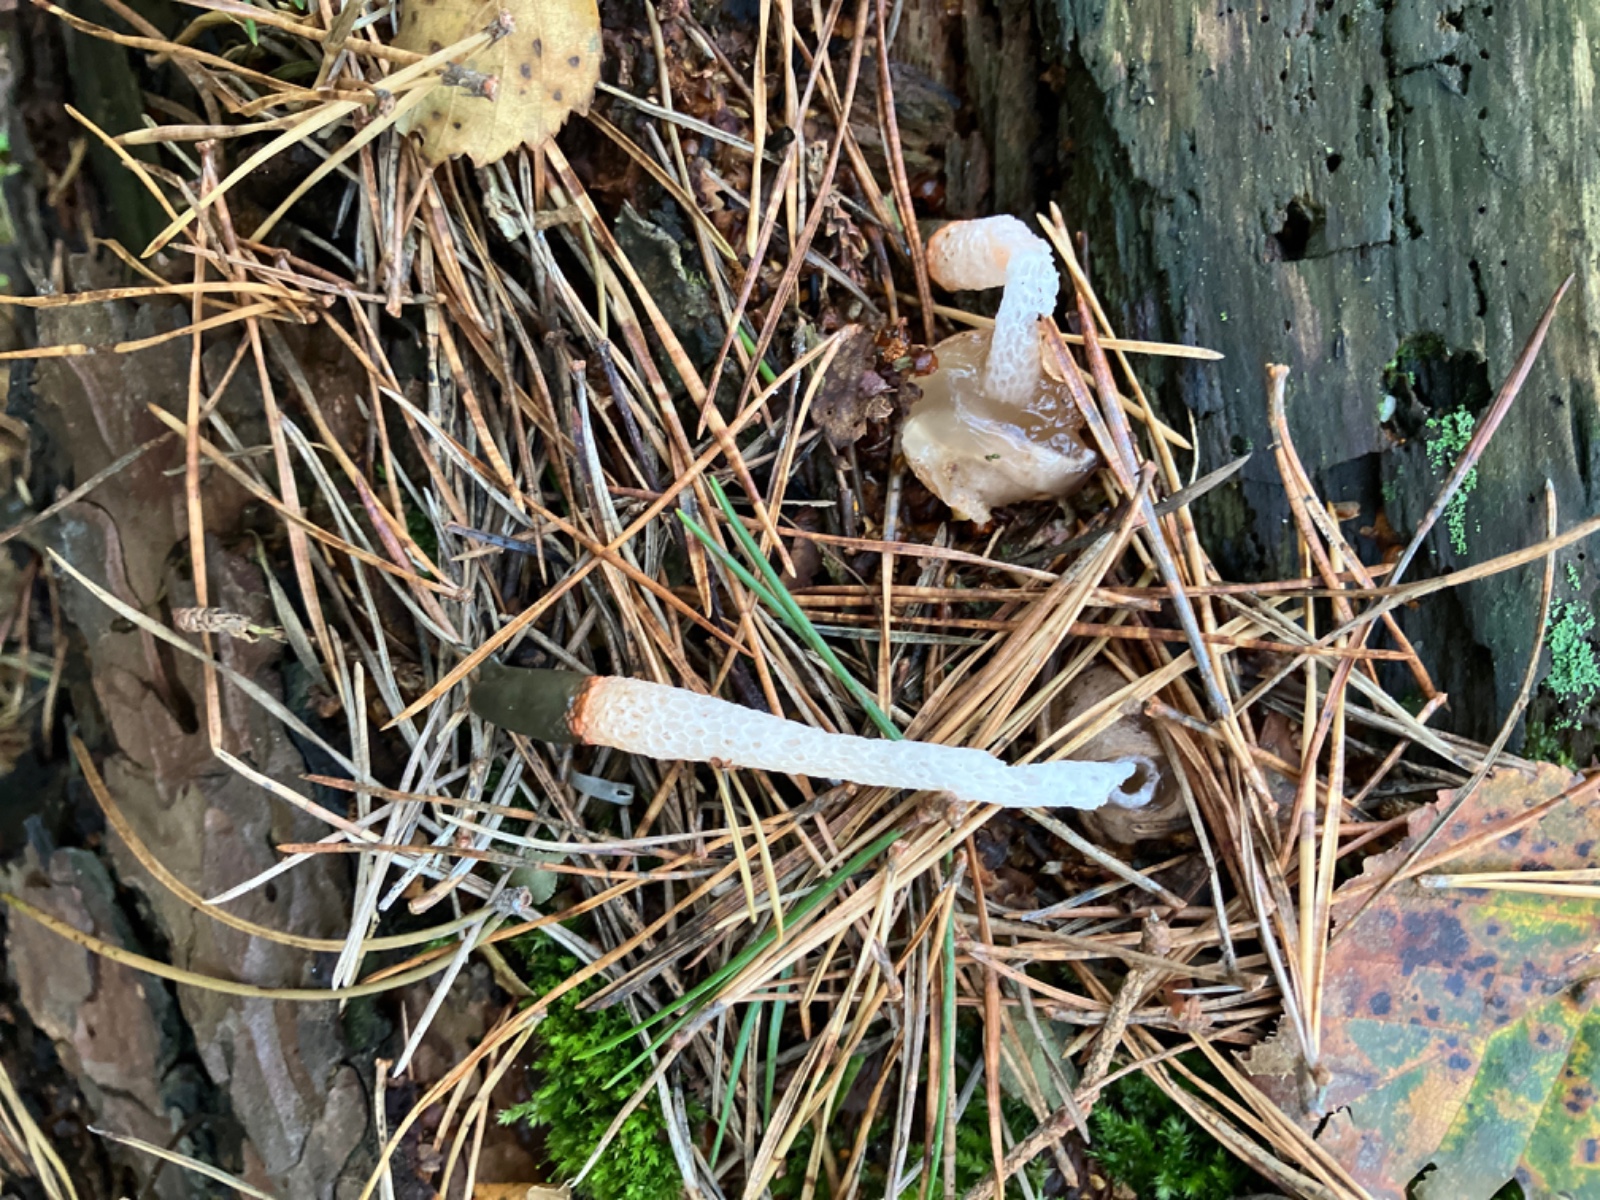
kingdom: Fungi
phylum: Basidiomycota
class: Agaricomycetes
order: Phallales
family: Phallaceae
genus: Mutinus
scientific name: Mutinus caninus
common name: hunde-stinksvamp
